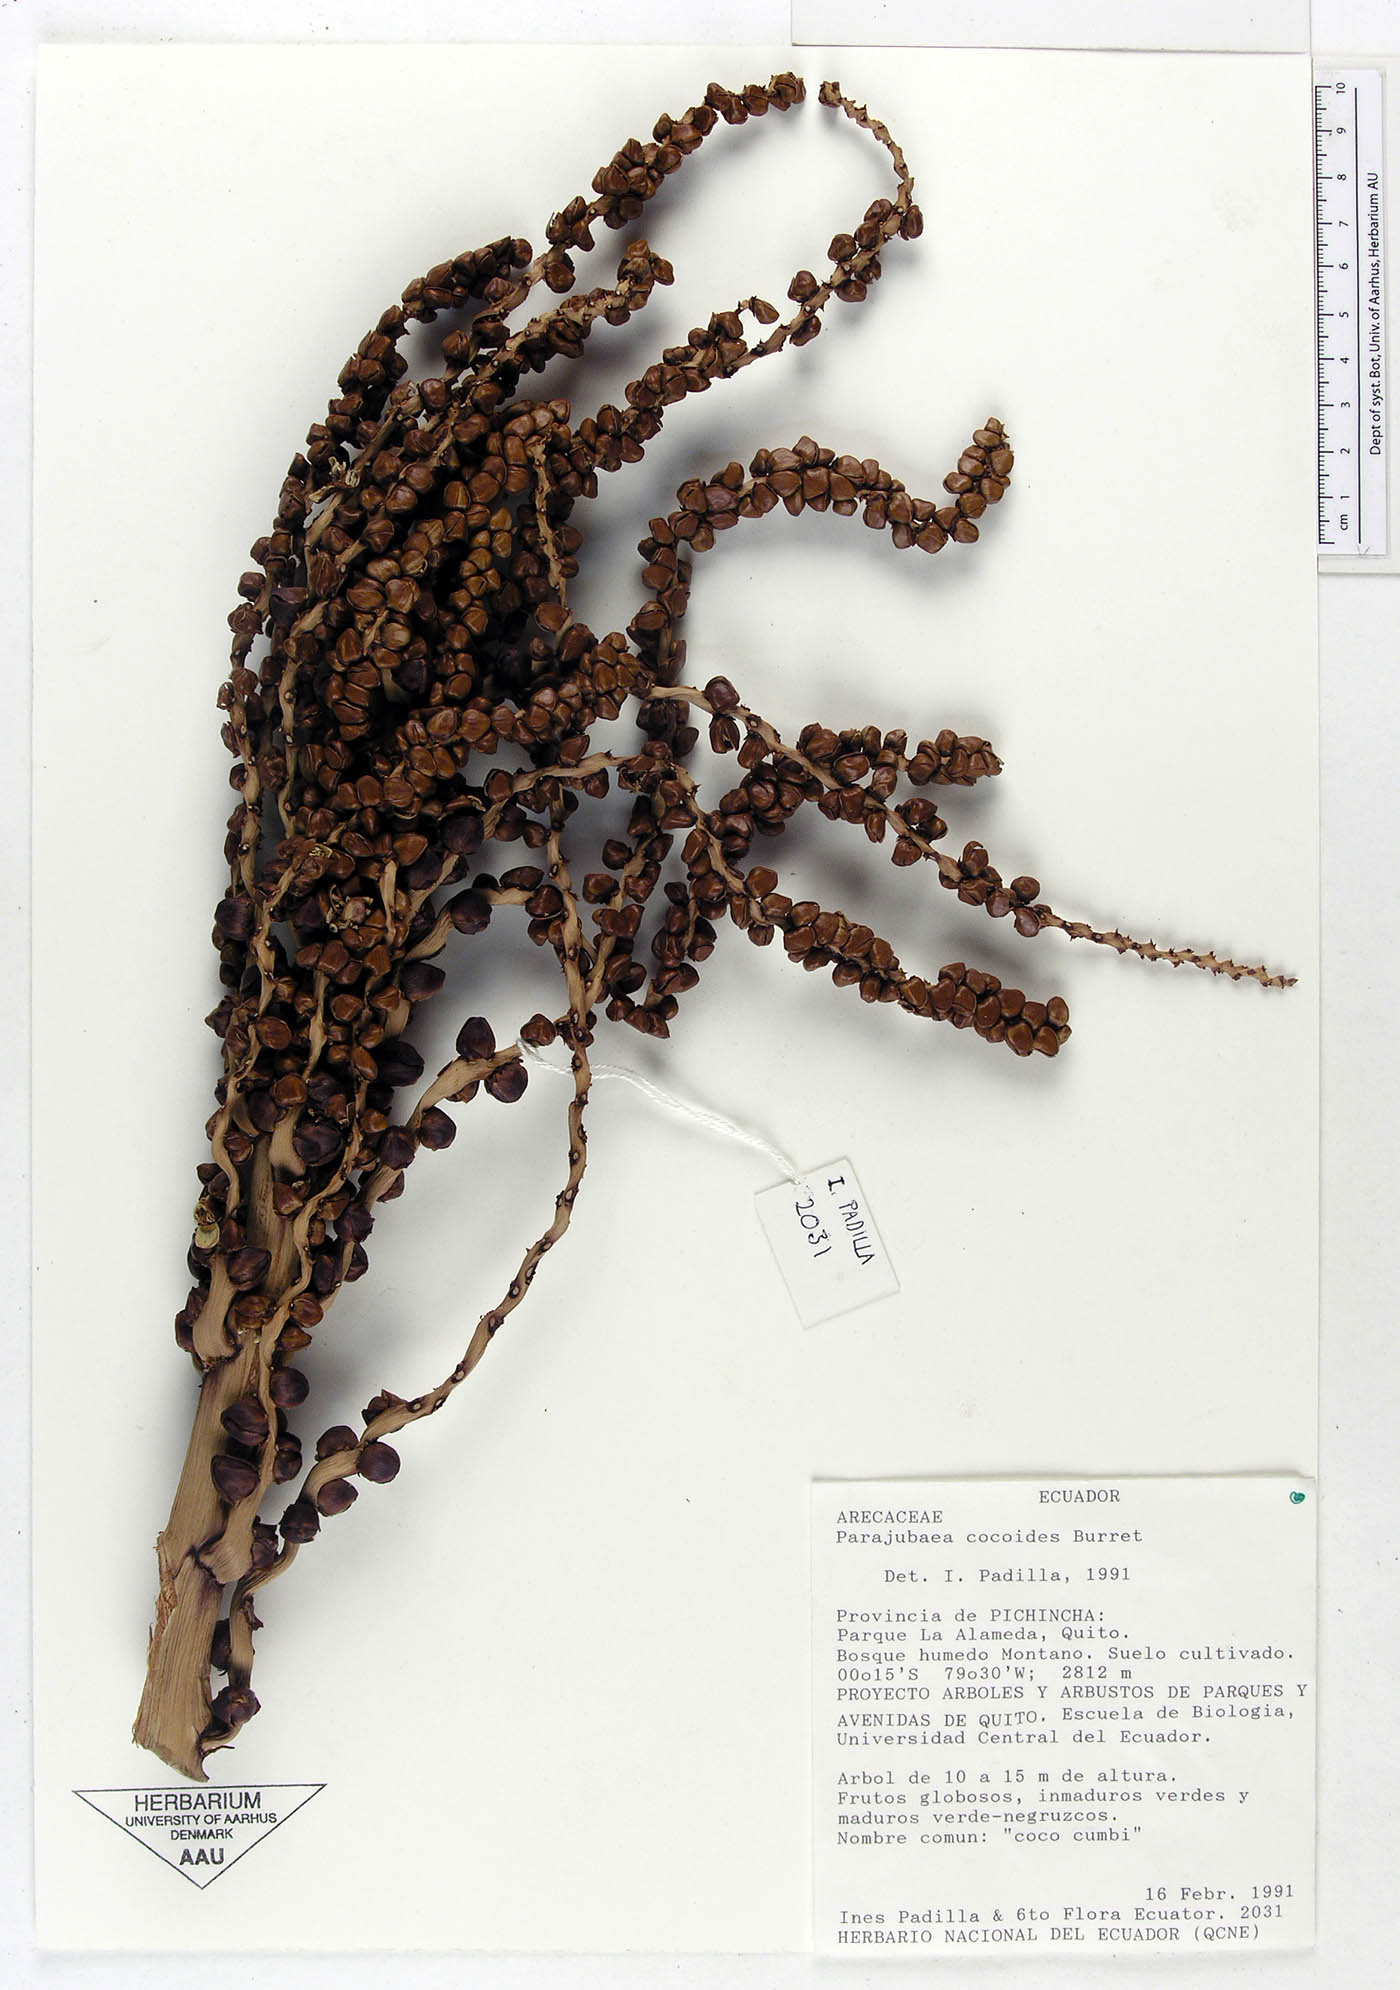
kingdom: Plantae
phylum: Tracheophyta
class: Liliopsida
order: Arecales
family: Arecaceae
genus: Parajubaea
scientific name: Parajubaea cocoides
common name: Quito palm
